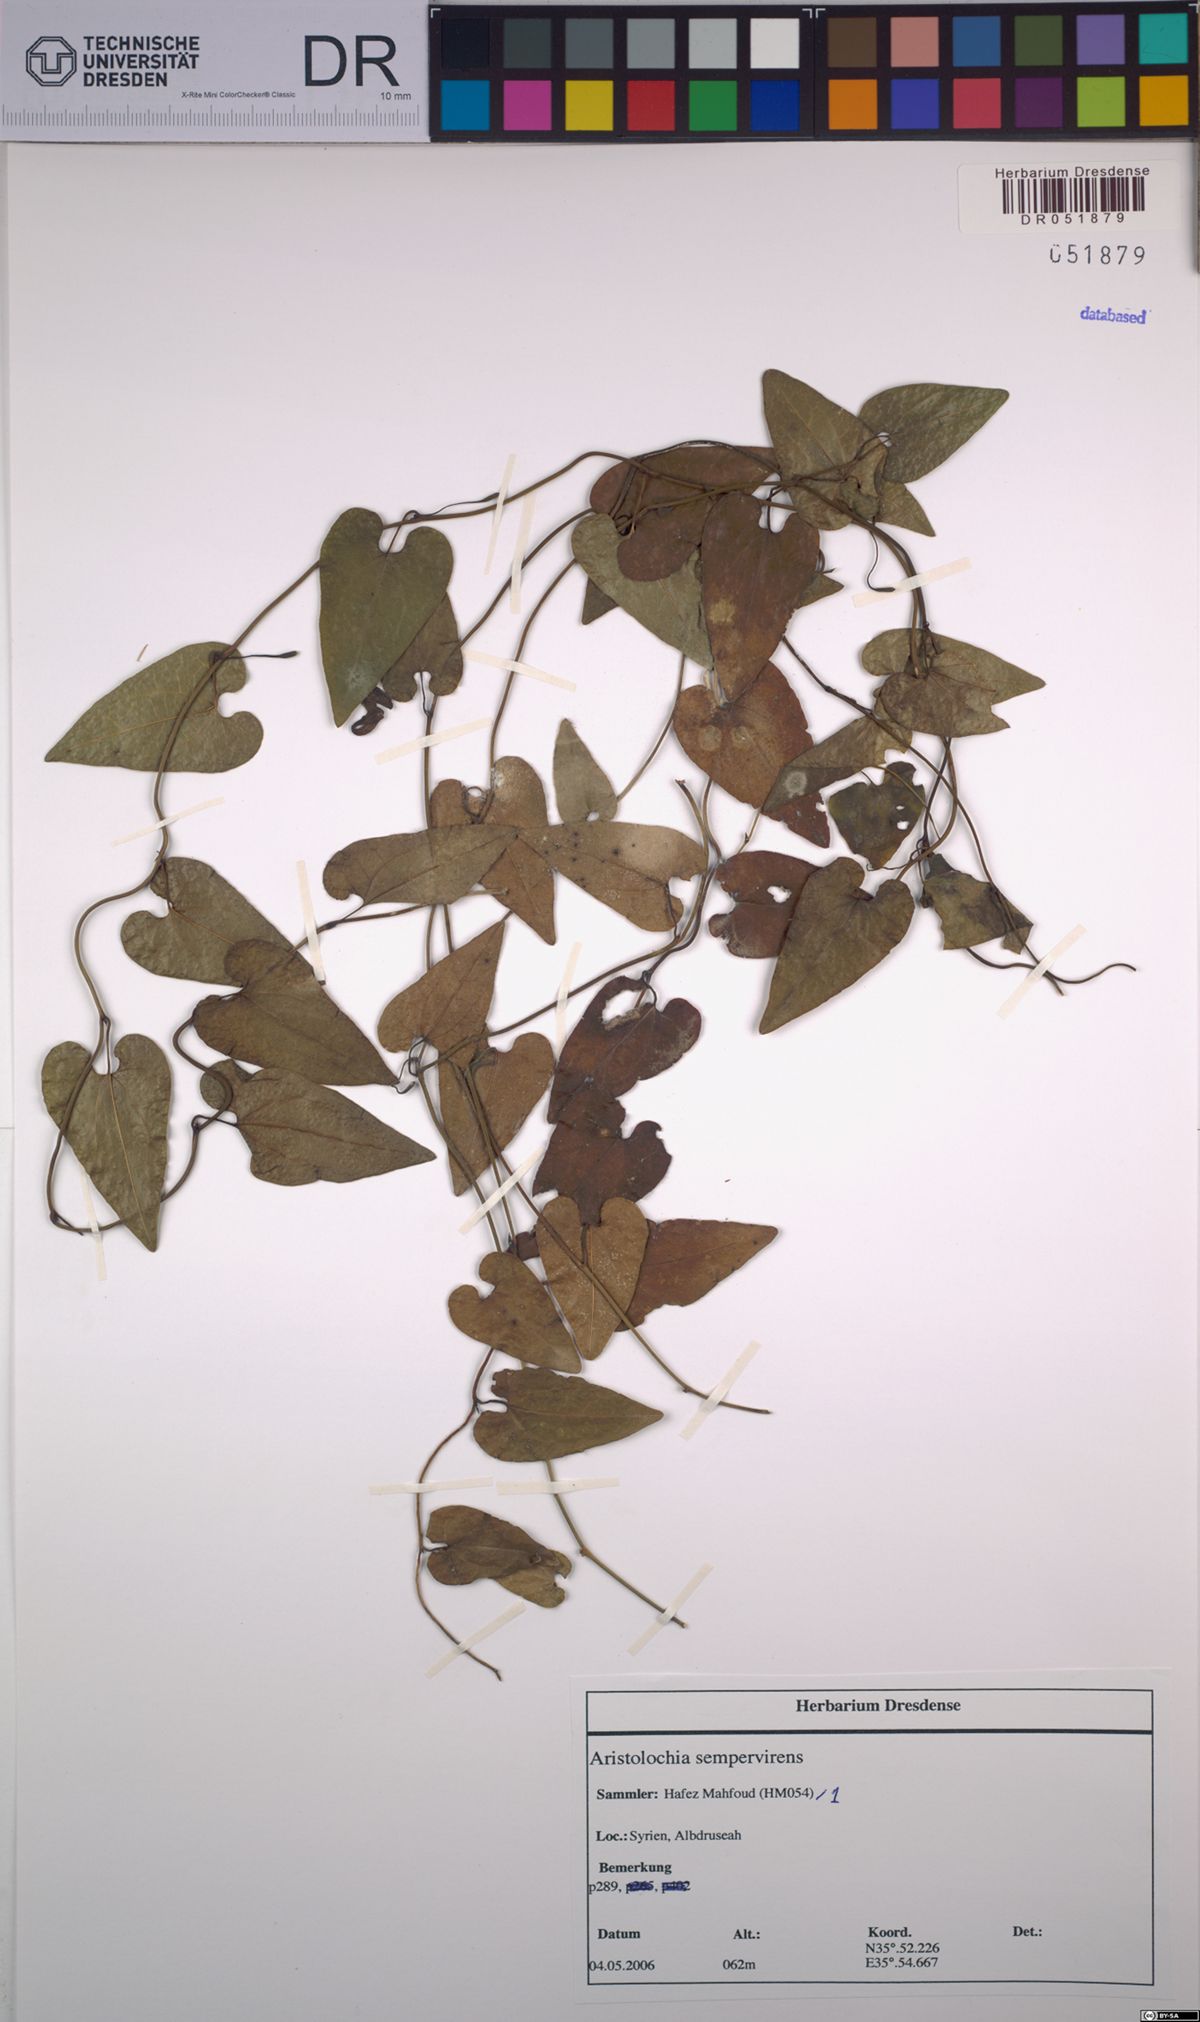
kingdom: Plantae
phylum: Tracheophyta
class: Magnoliopsida
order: Piperales
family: Aristolochiaceae
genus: Aristolochia
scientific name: Aristolochia sempervirens
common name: Long birthwort
